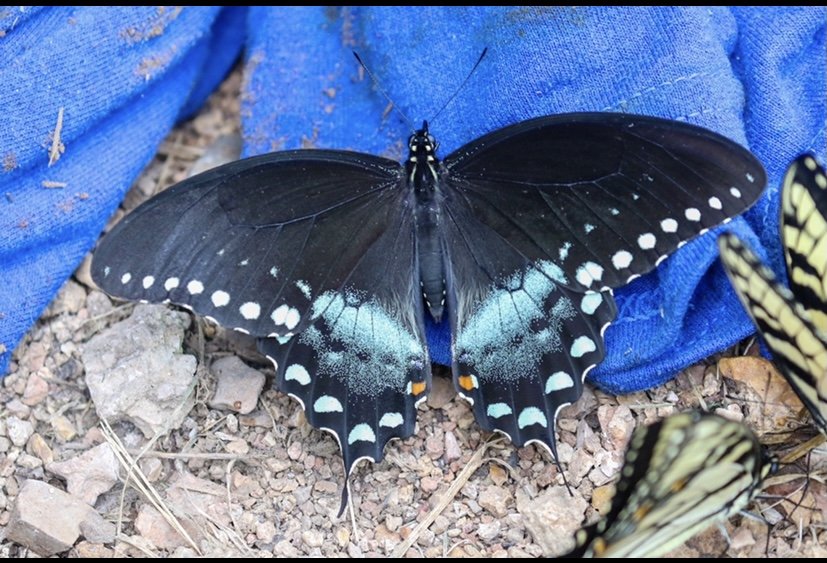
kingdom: Animalia
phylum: Arthropoda
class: Insecta
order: Lepidoptera
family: Papilionidae
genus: Pterourus
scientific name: Pterourus troilus
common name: Spicebush Swallowtail
